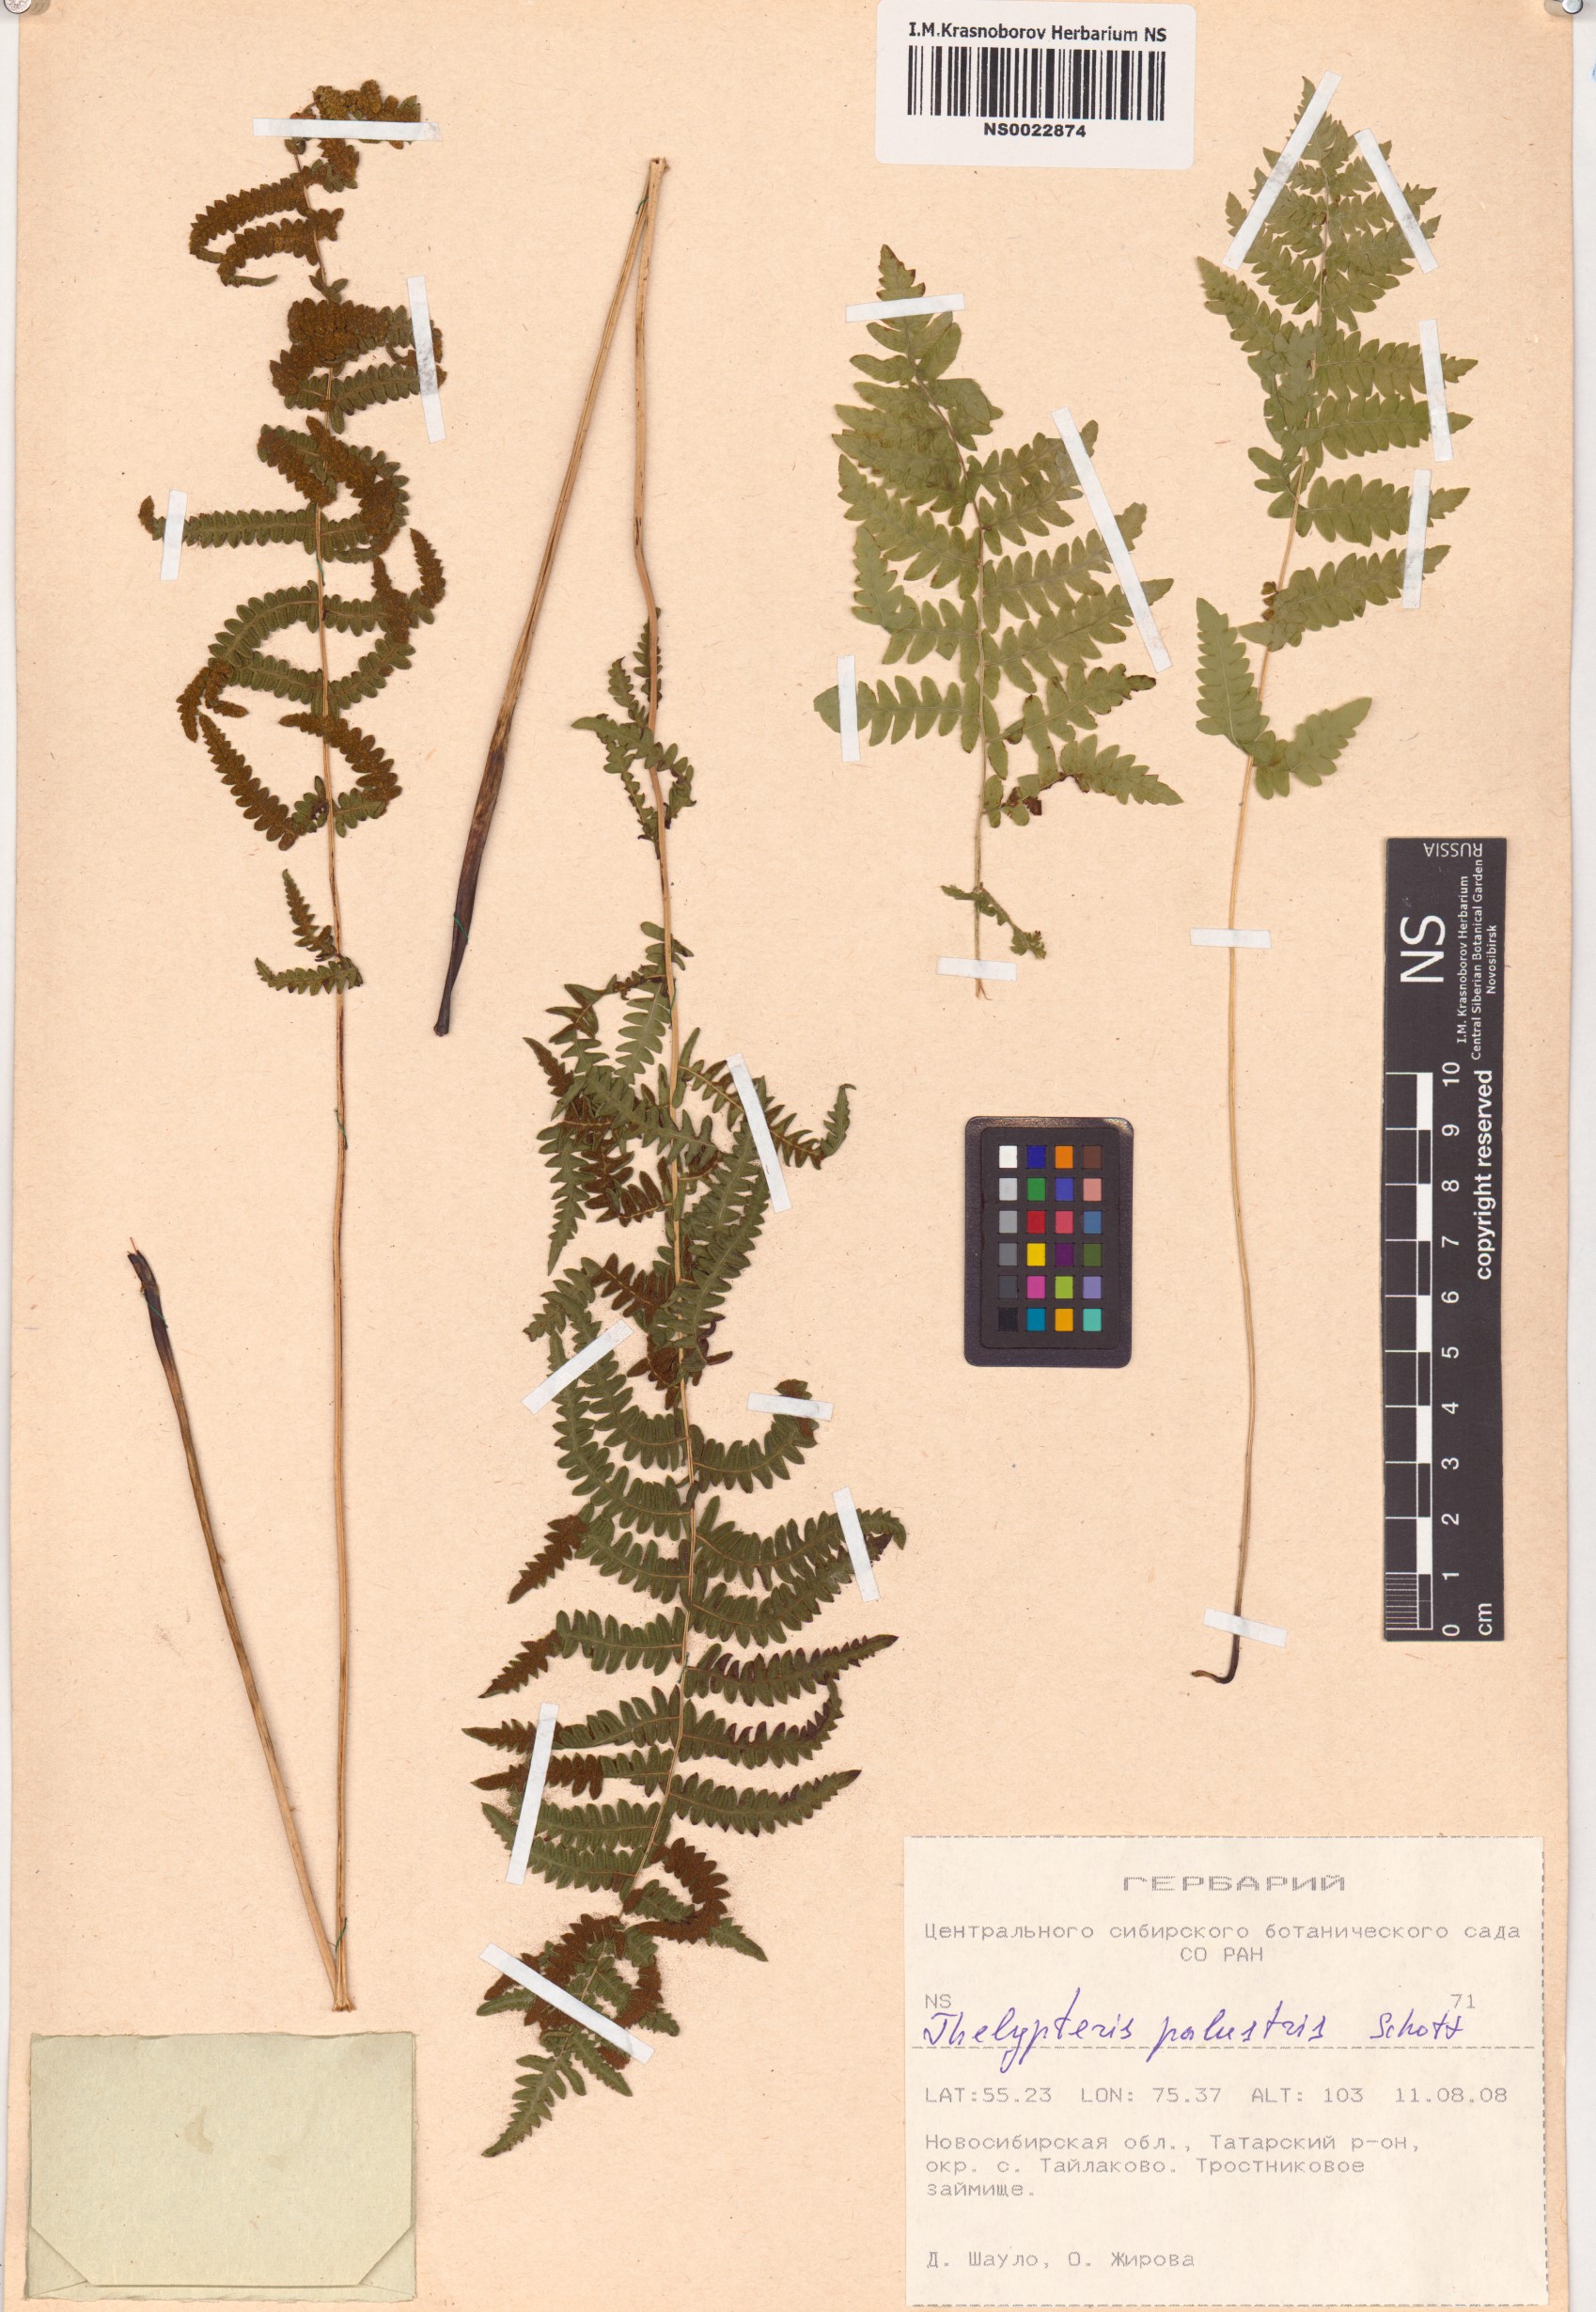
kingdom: Plantae
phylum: Tracheophyta
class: Polypodiopsida
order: Polypodiales
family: Thelypteridaceae
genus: Thelypteris
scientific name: Thelypteris palustris
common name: Marsh fern
